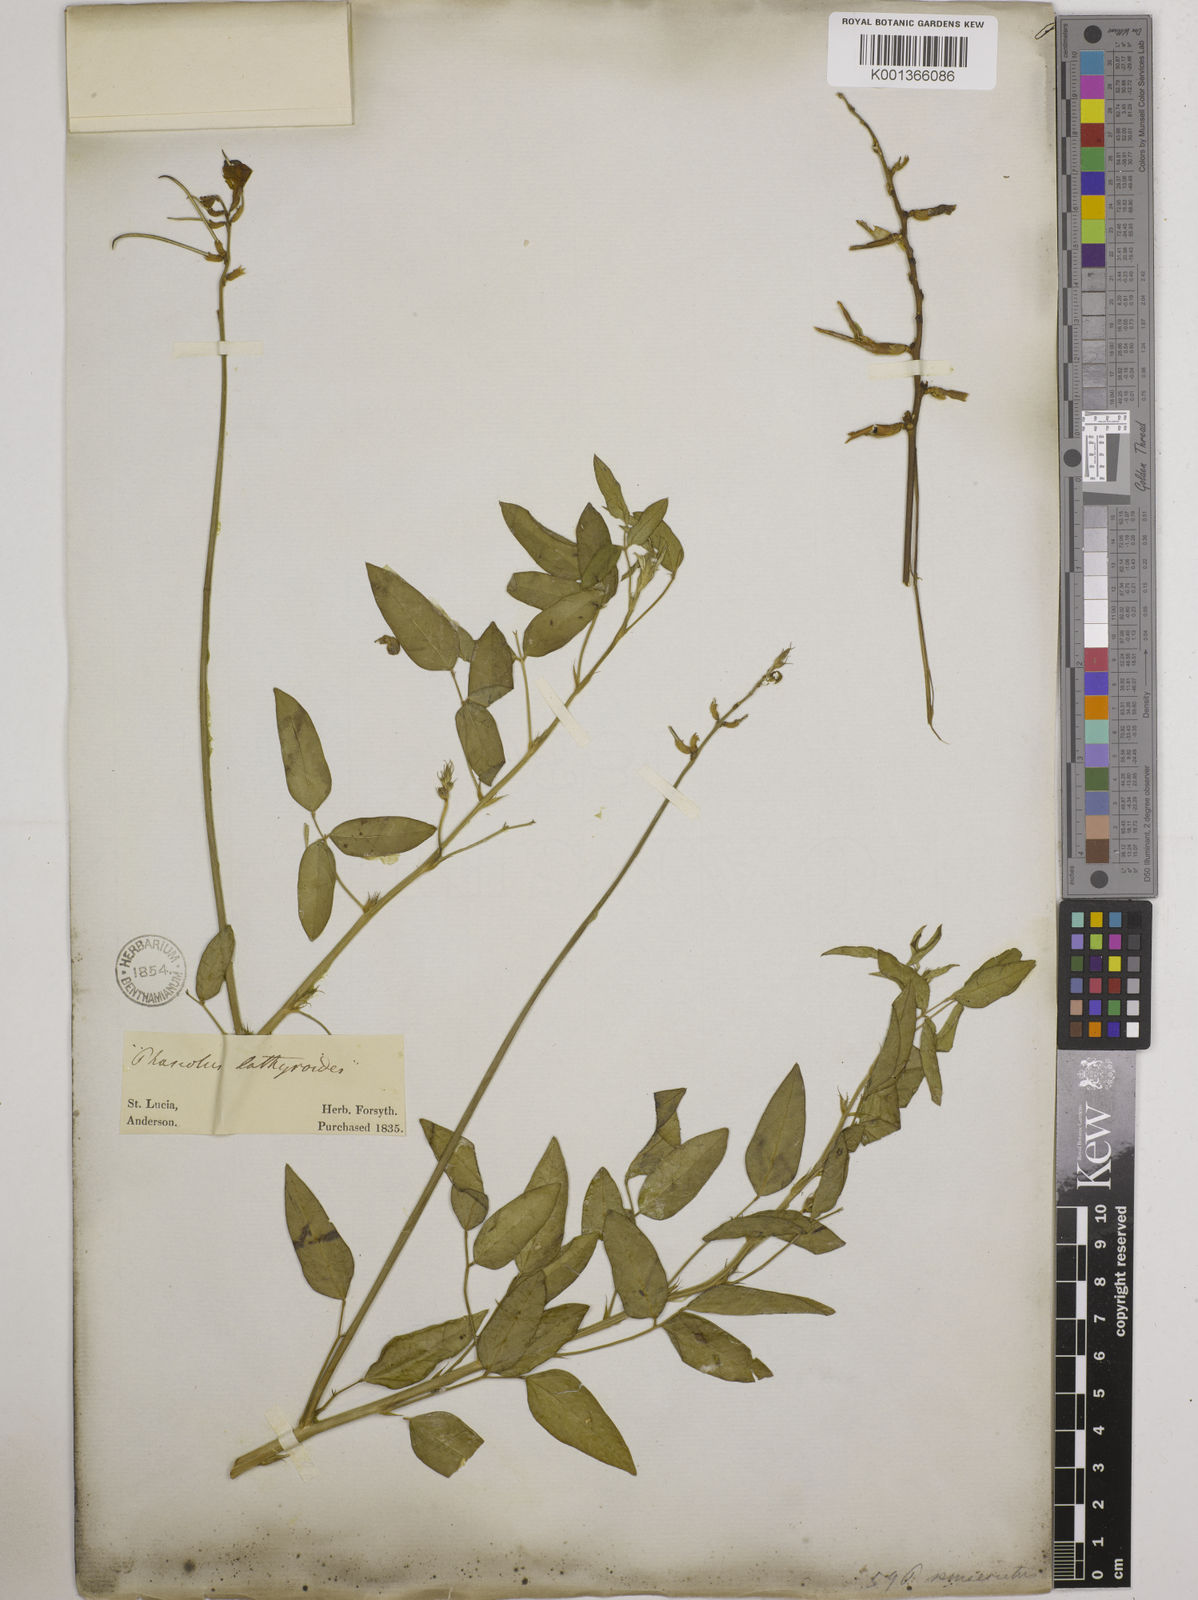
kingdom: Plantae
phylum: Tracheophyta
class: Magnoliopsida
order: Fabales
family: Fabaceae
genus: Macroptilium
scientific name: Macroptilium lathyroides
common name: Wild bushbean
